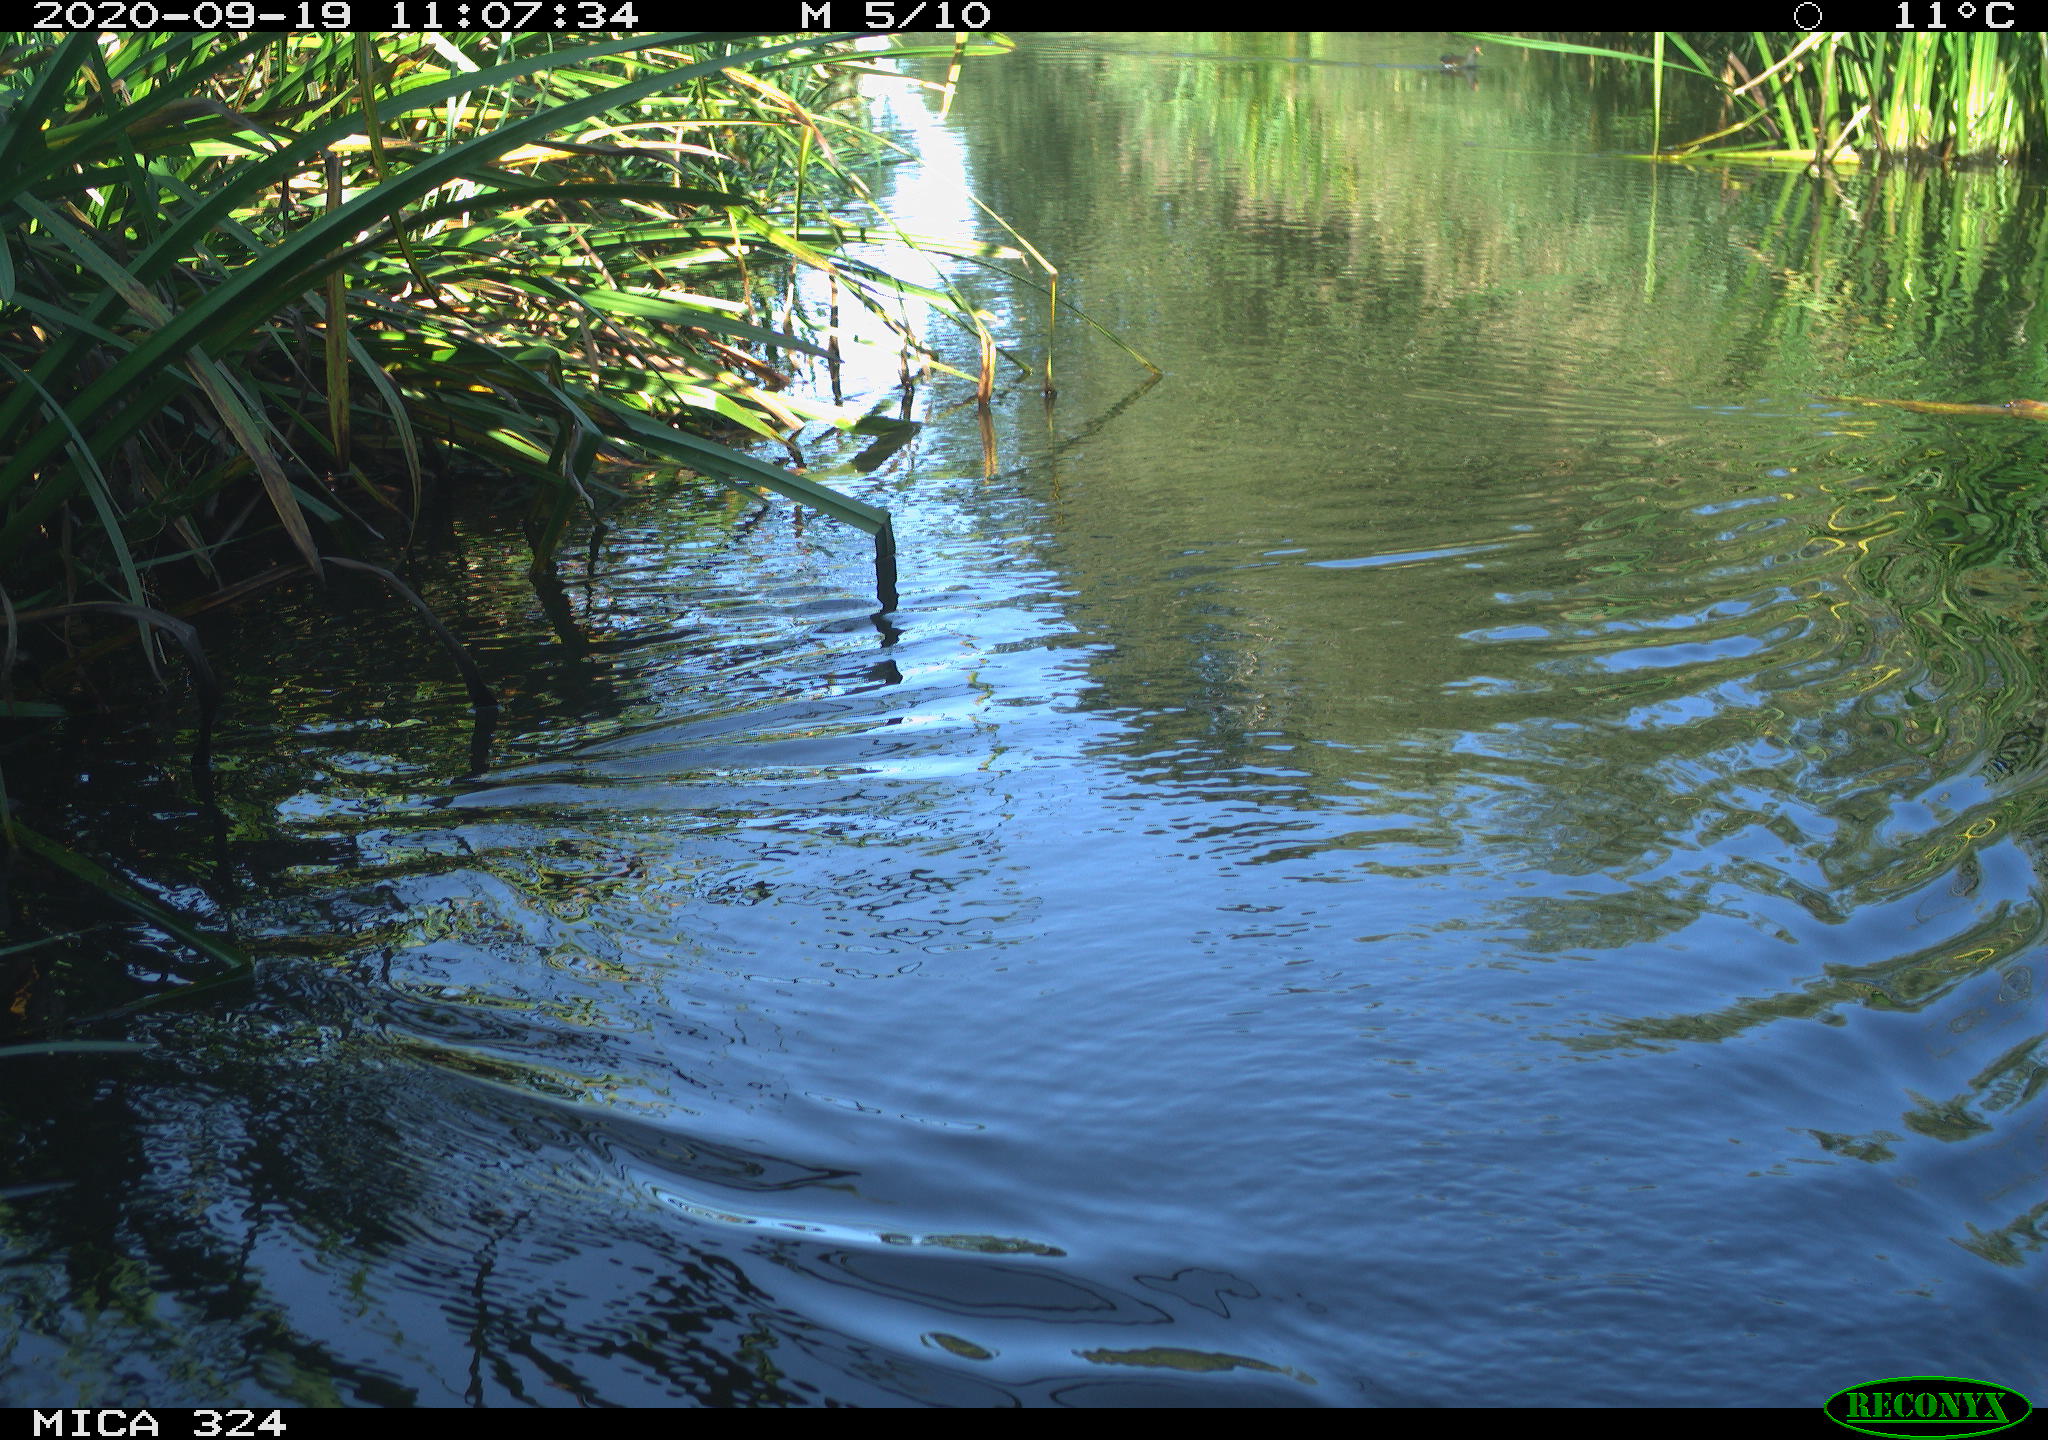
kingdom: Animalia
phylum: Chordata
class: Aves
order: Gruiformes
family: Rallidae
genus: Gallinula
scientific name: Gallinula chloropus
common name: Common moorhen
